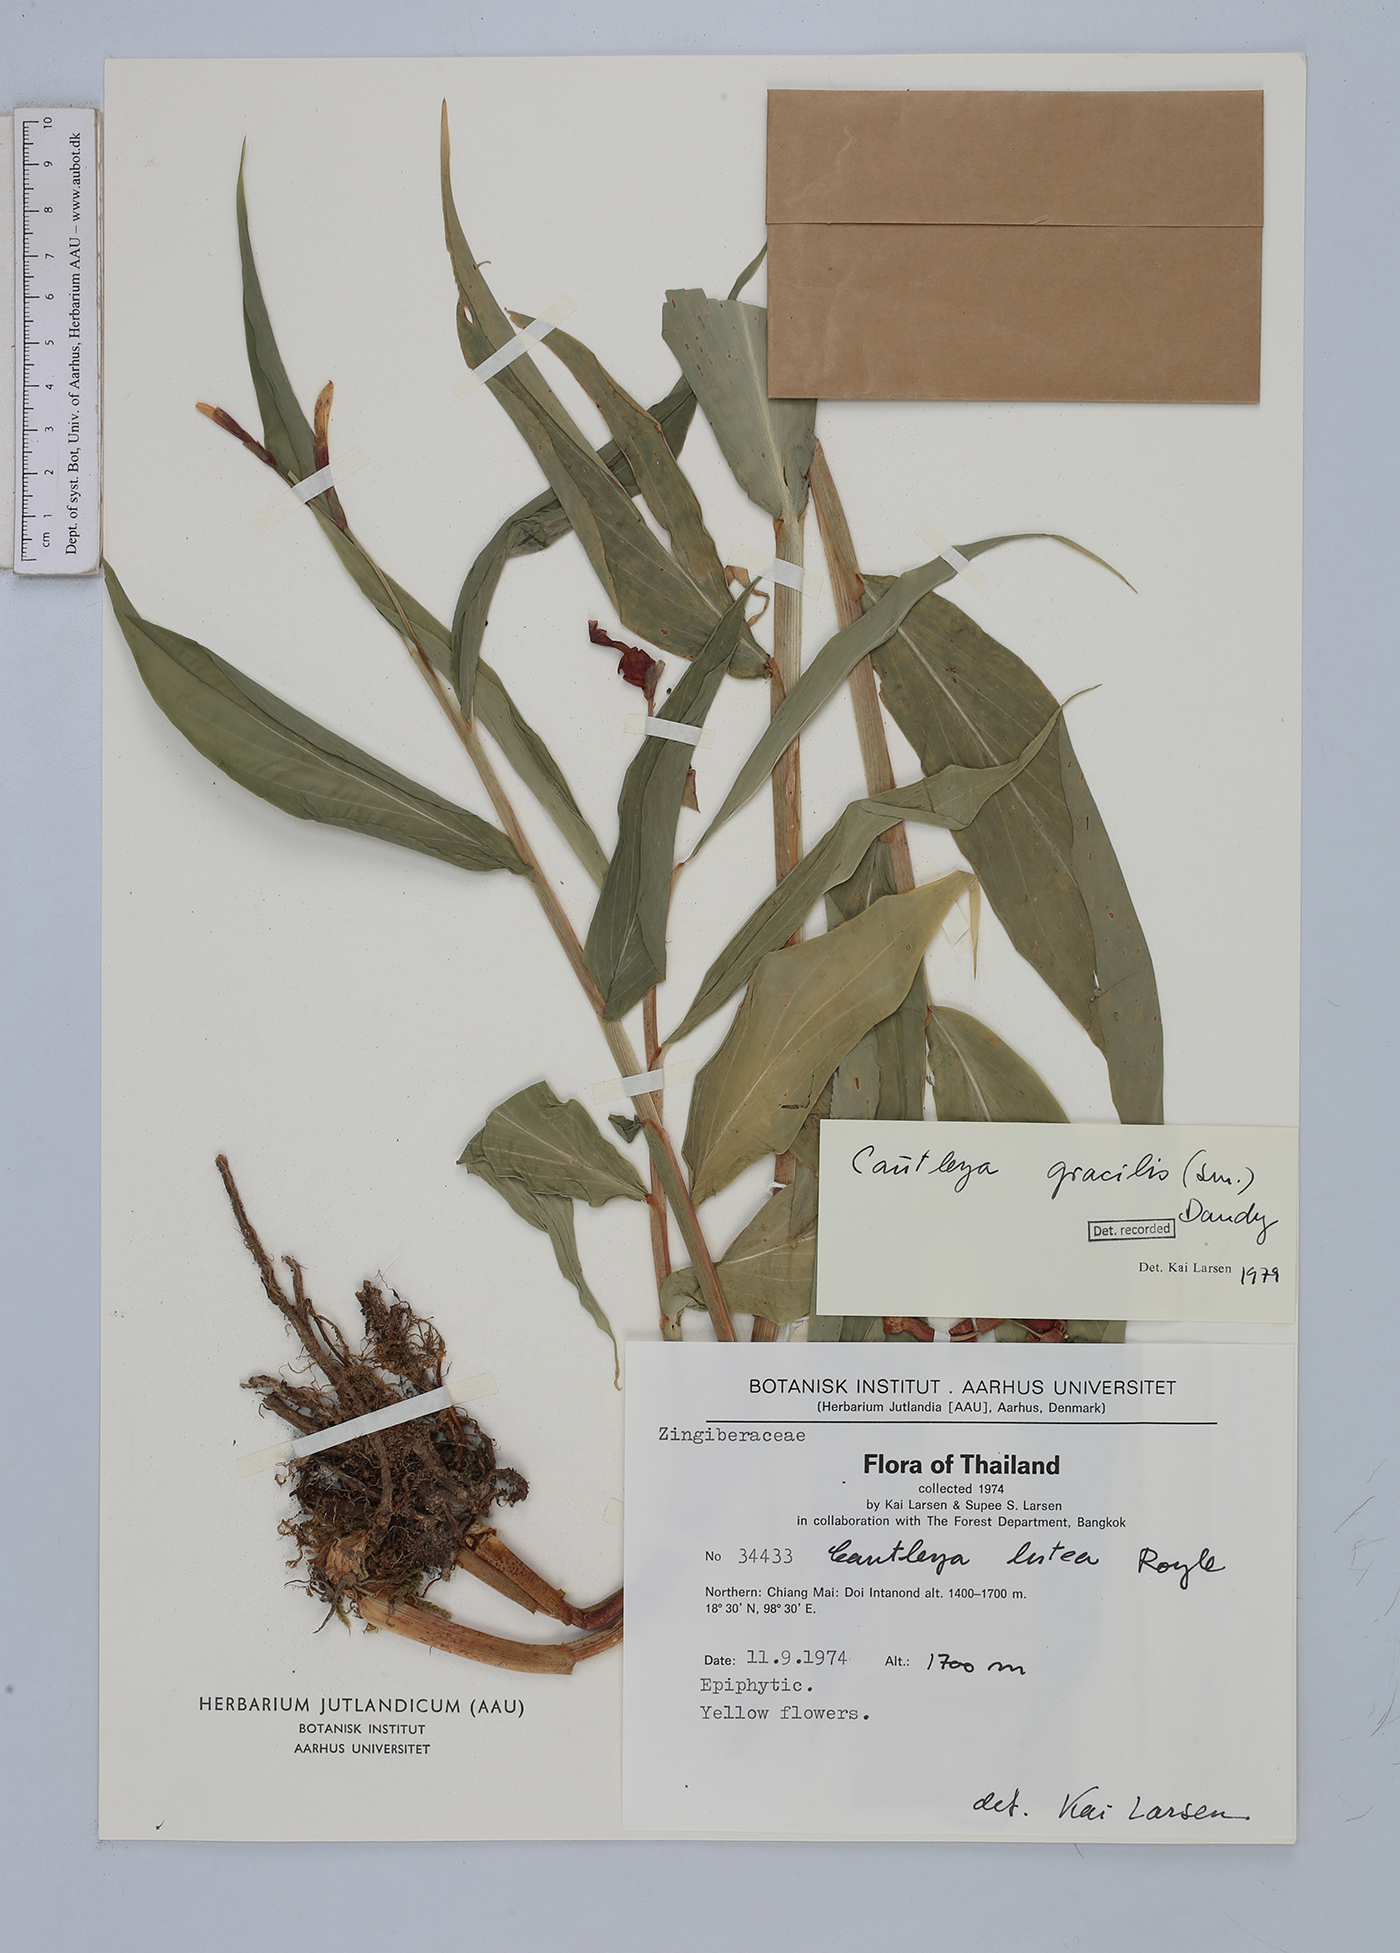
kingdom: Plantae
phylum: Tracheophyta
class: Liliopsida
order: Zingiberales
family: Zingiberaceae
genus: Cautleya
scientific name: Cautleya gracilis
